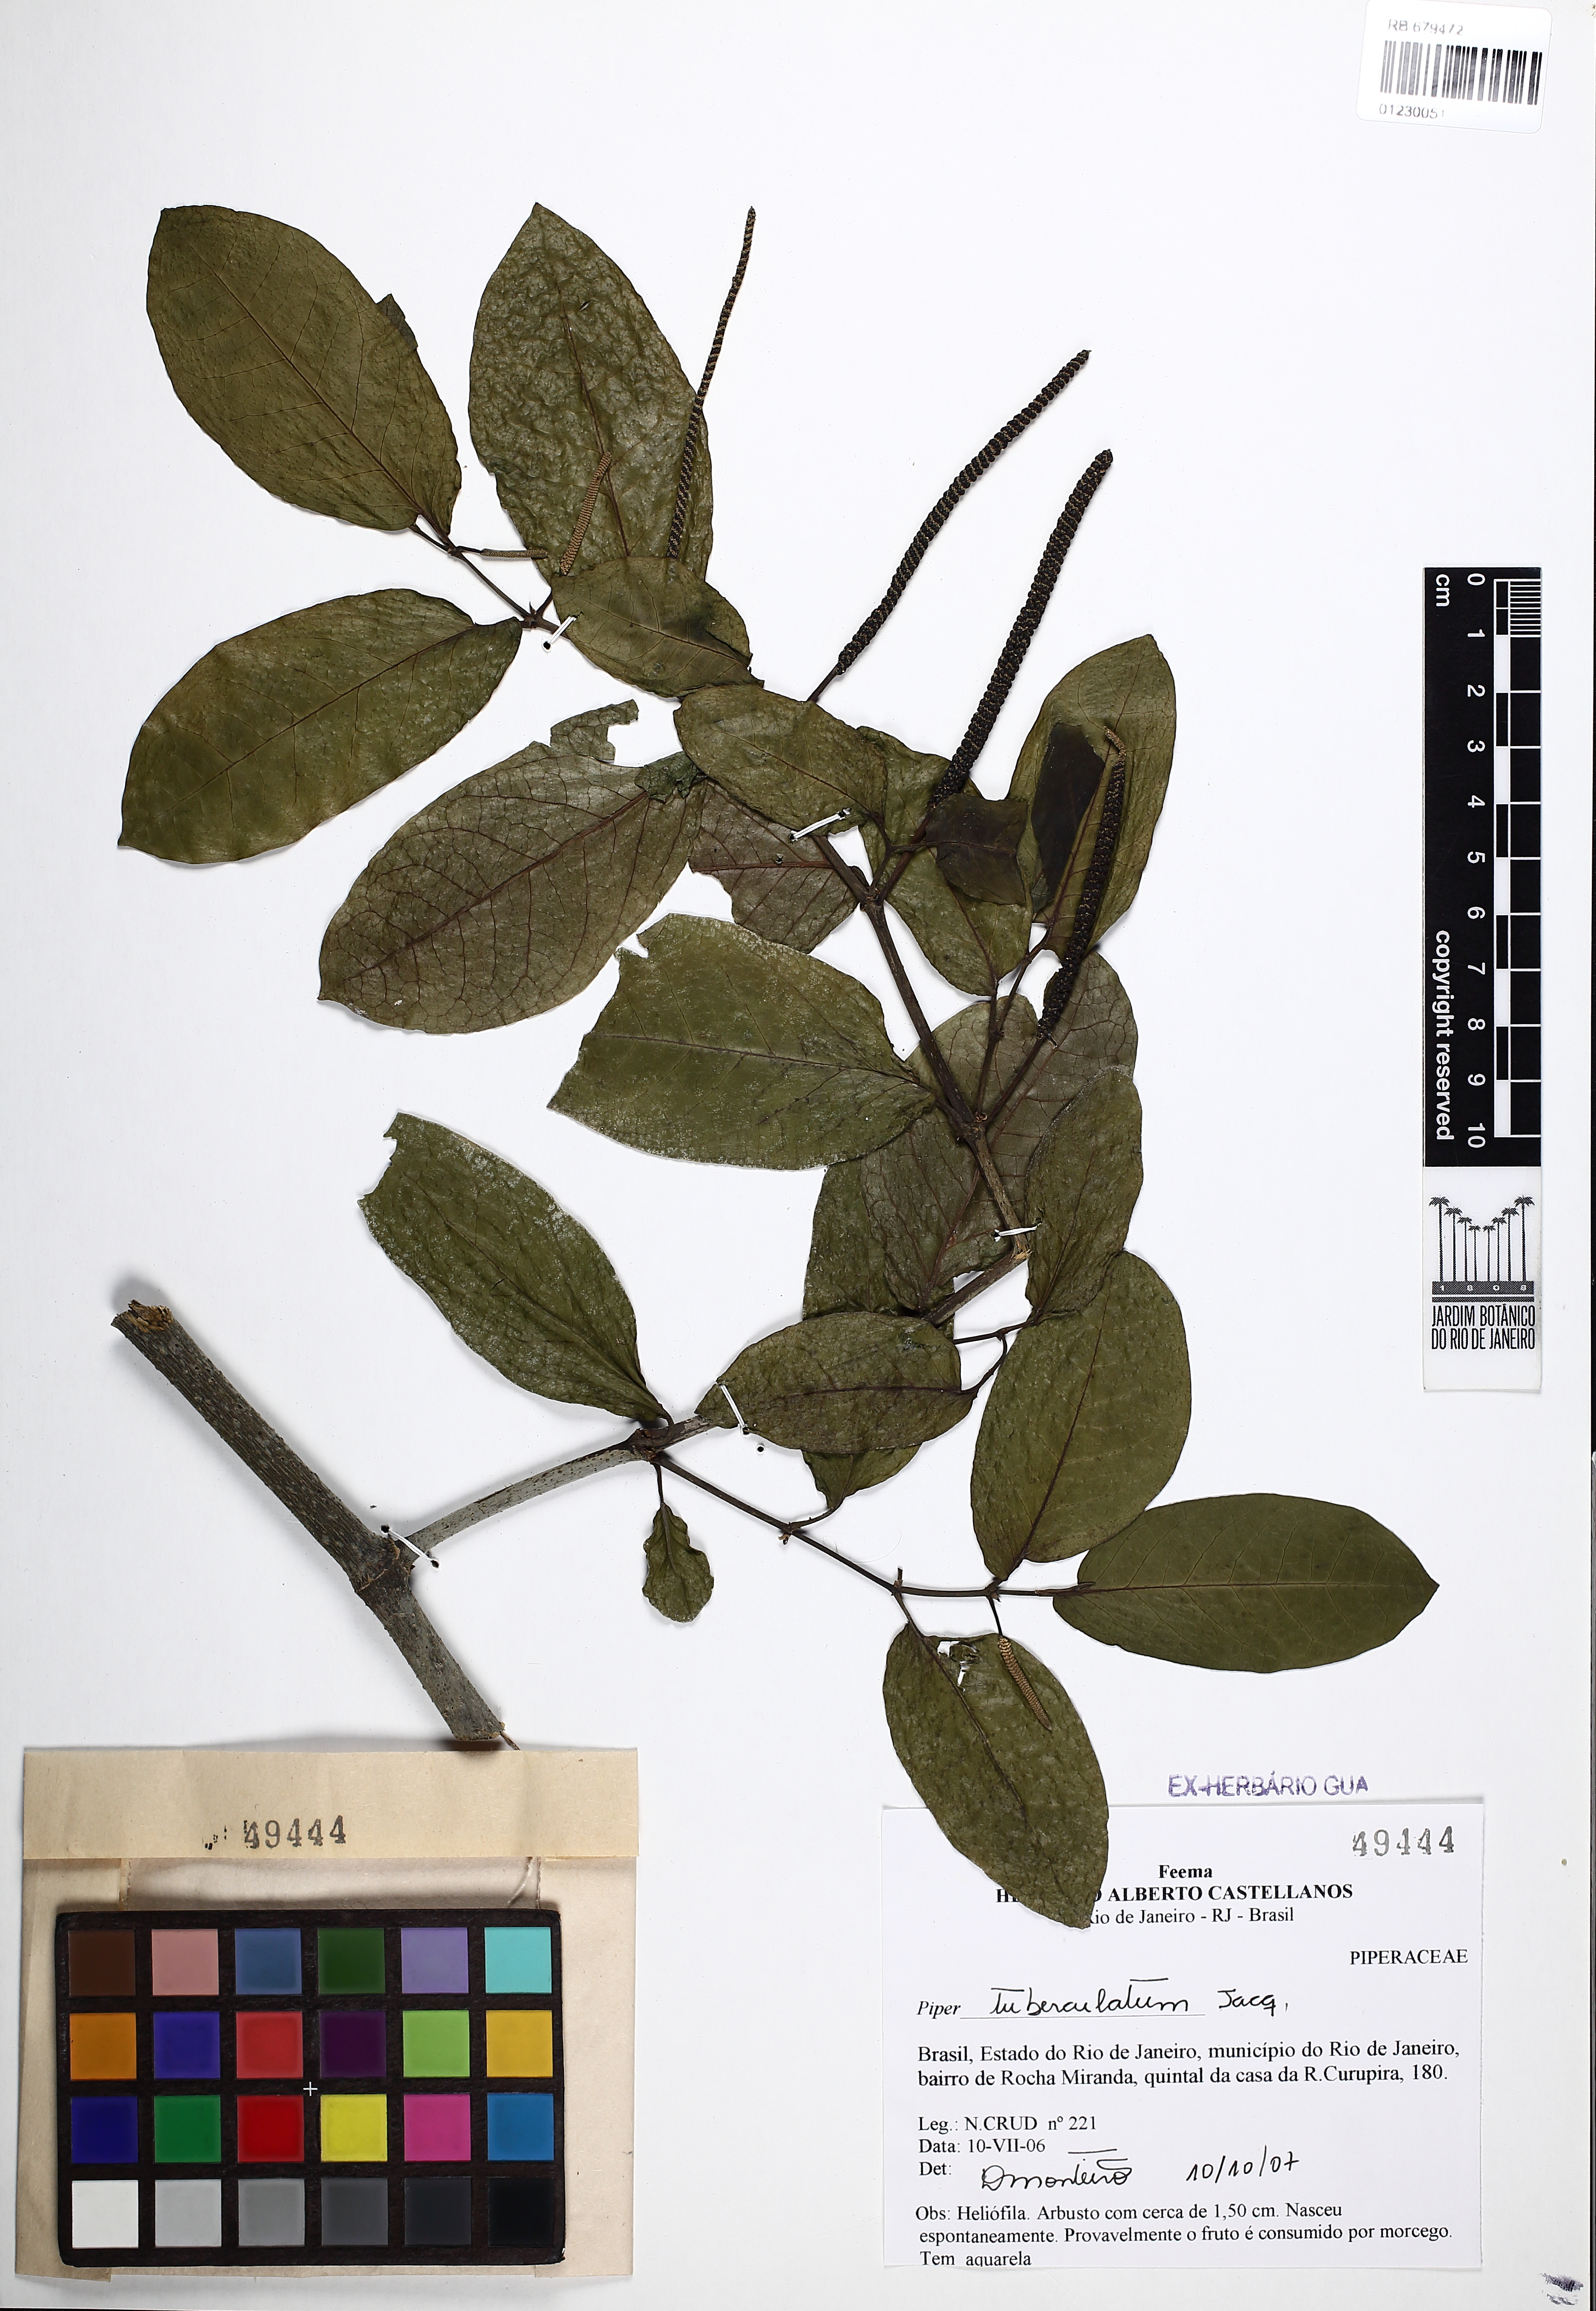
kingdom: Plantae
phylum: Tracheophyta
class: Magnoliopsida
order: Piperales
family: Piperaceae
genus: Piper
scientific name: Piper tuberculatum
